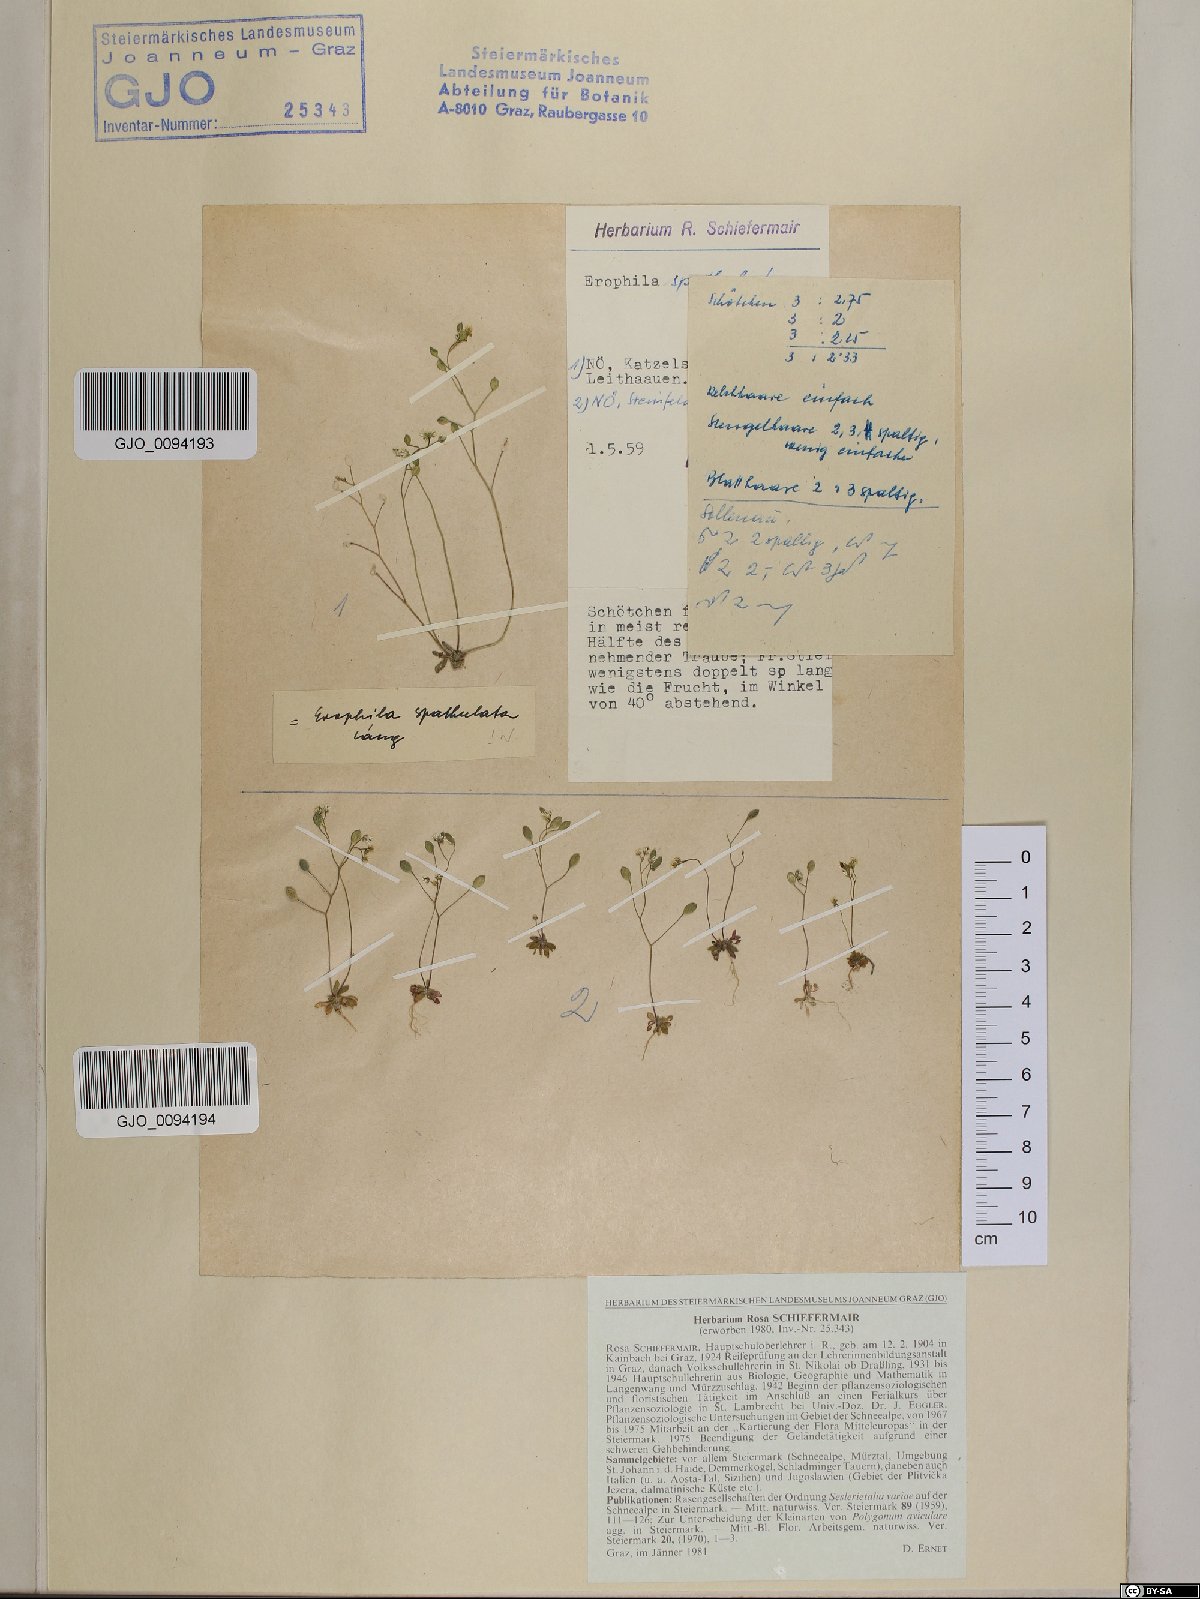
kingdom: Plantae
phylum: Tracheophyta
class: Magnoliopsida
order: Brassicales
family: Brassicaceae
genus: Draba
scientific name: Draba verna
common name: Spring draba
